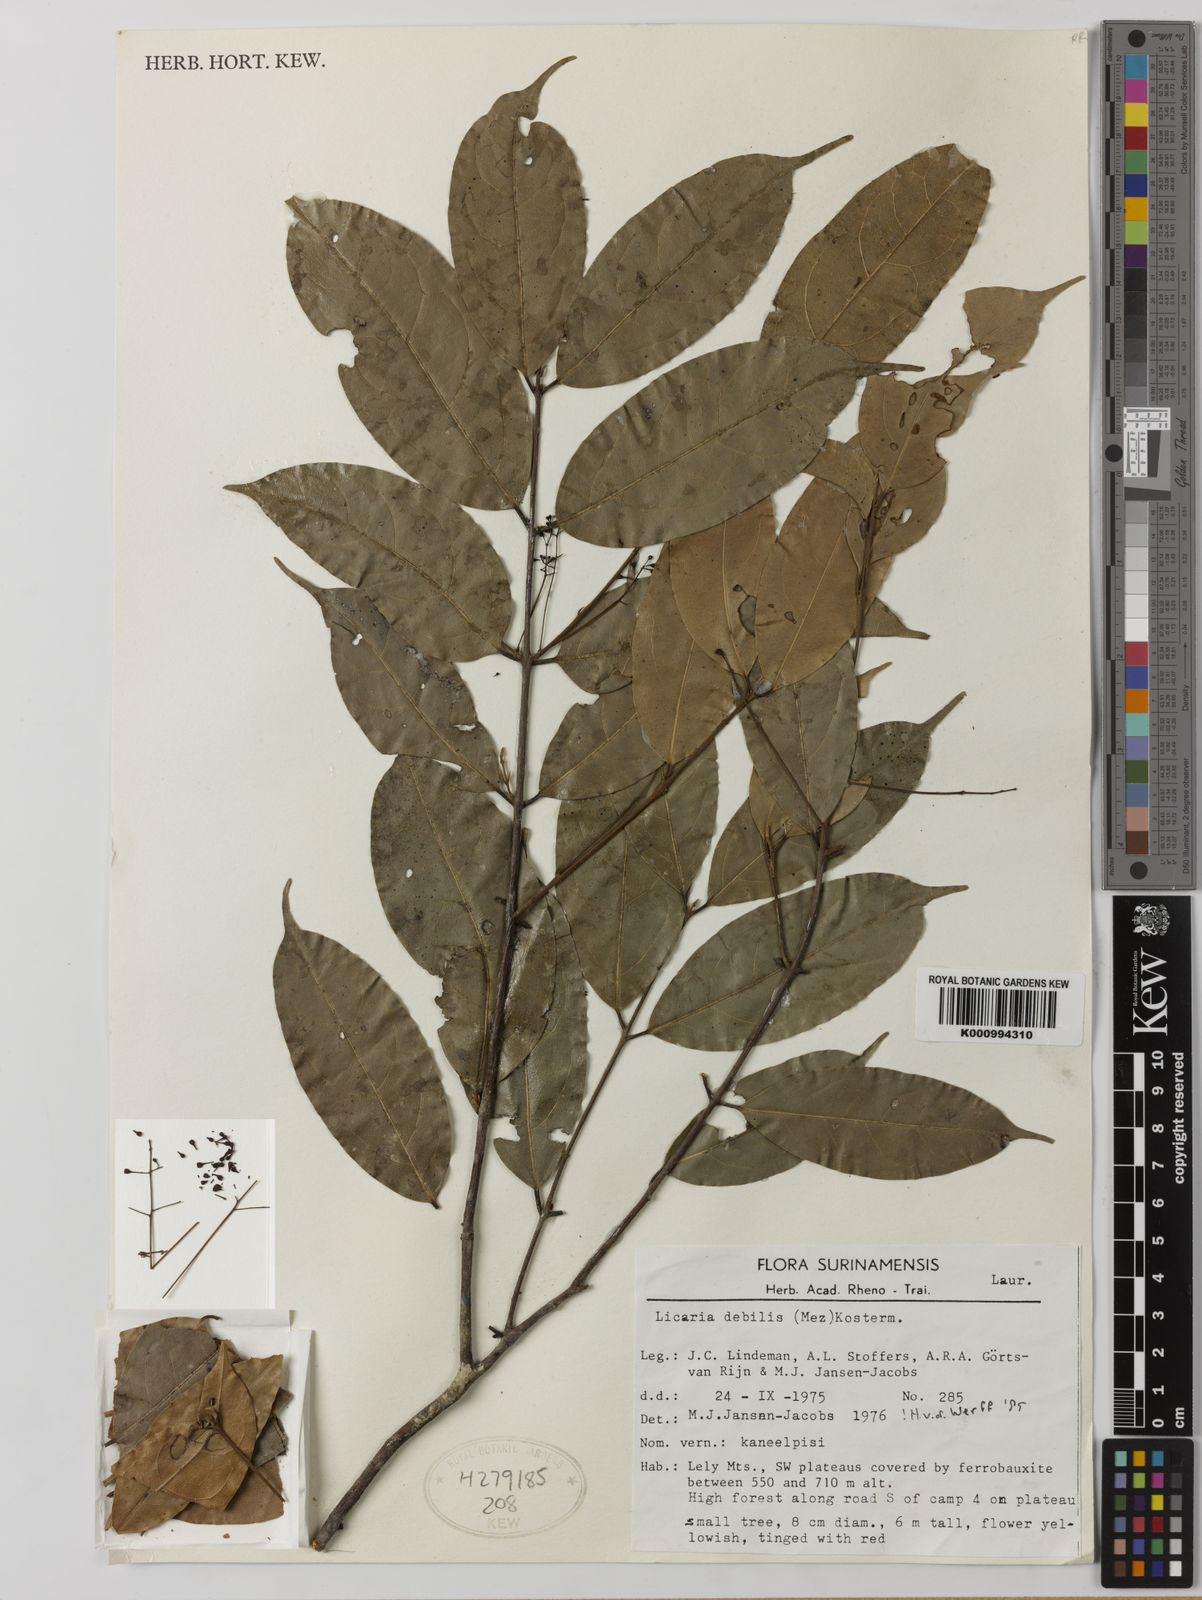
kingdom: Plantae
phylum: Tracheophyta
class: Magnoliopsida
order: Laurales
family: Lauraceae
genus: Licaria
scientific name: Licaria debilis
